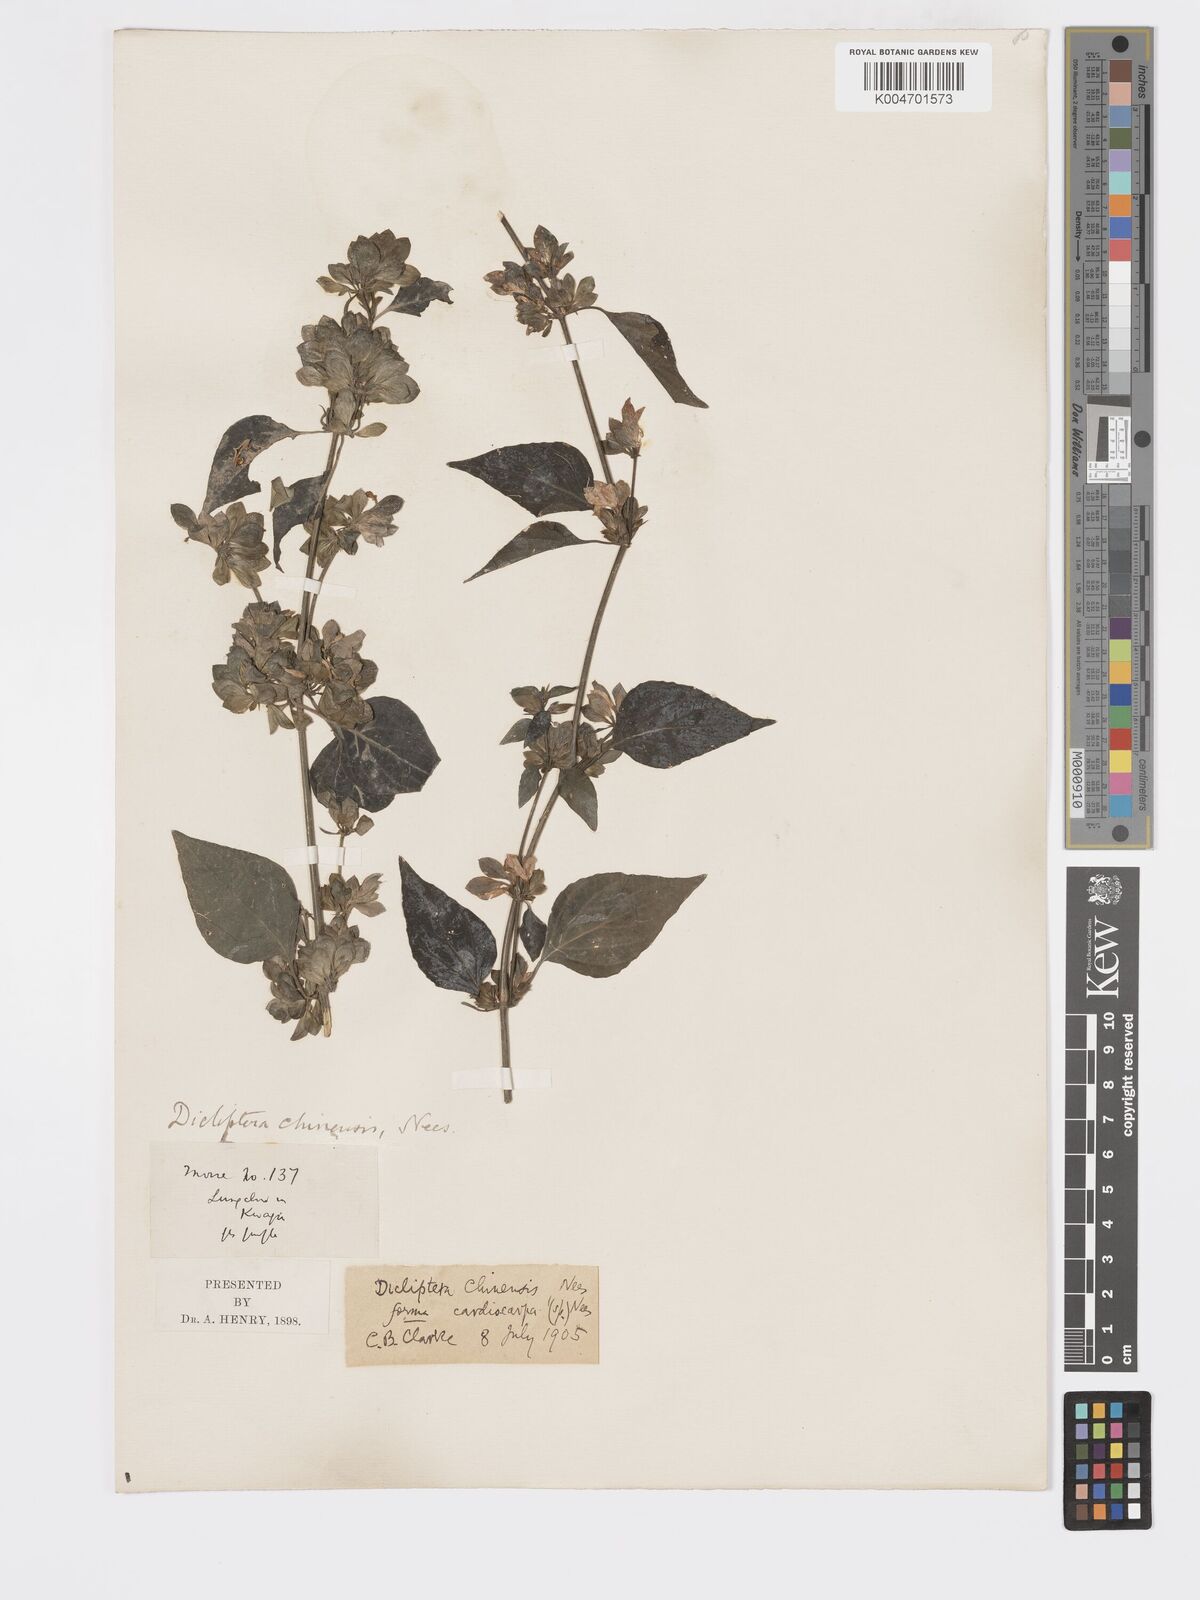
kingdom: Plantae
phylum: Tracheophyta
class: Magnoliopsida
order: Lamiales
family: Acanthaceae
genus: Dicliptera
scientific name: Dicliptera chinensis
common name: Chinese foldwing
